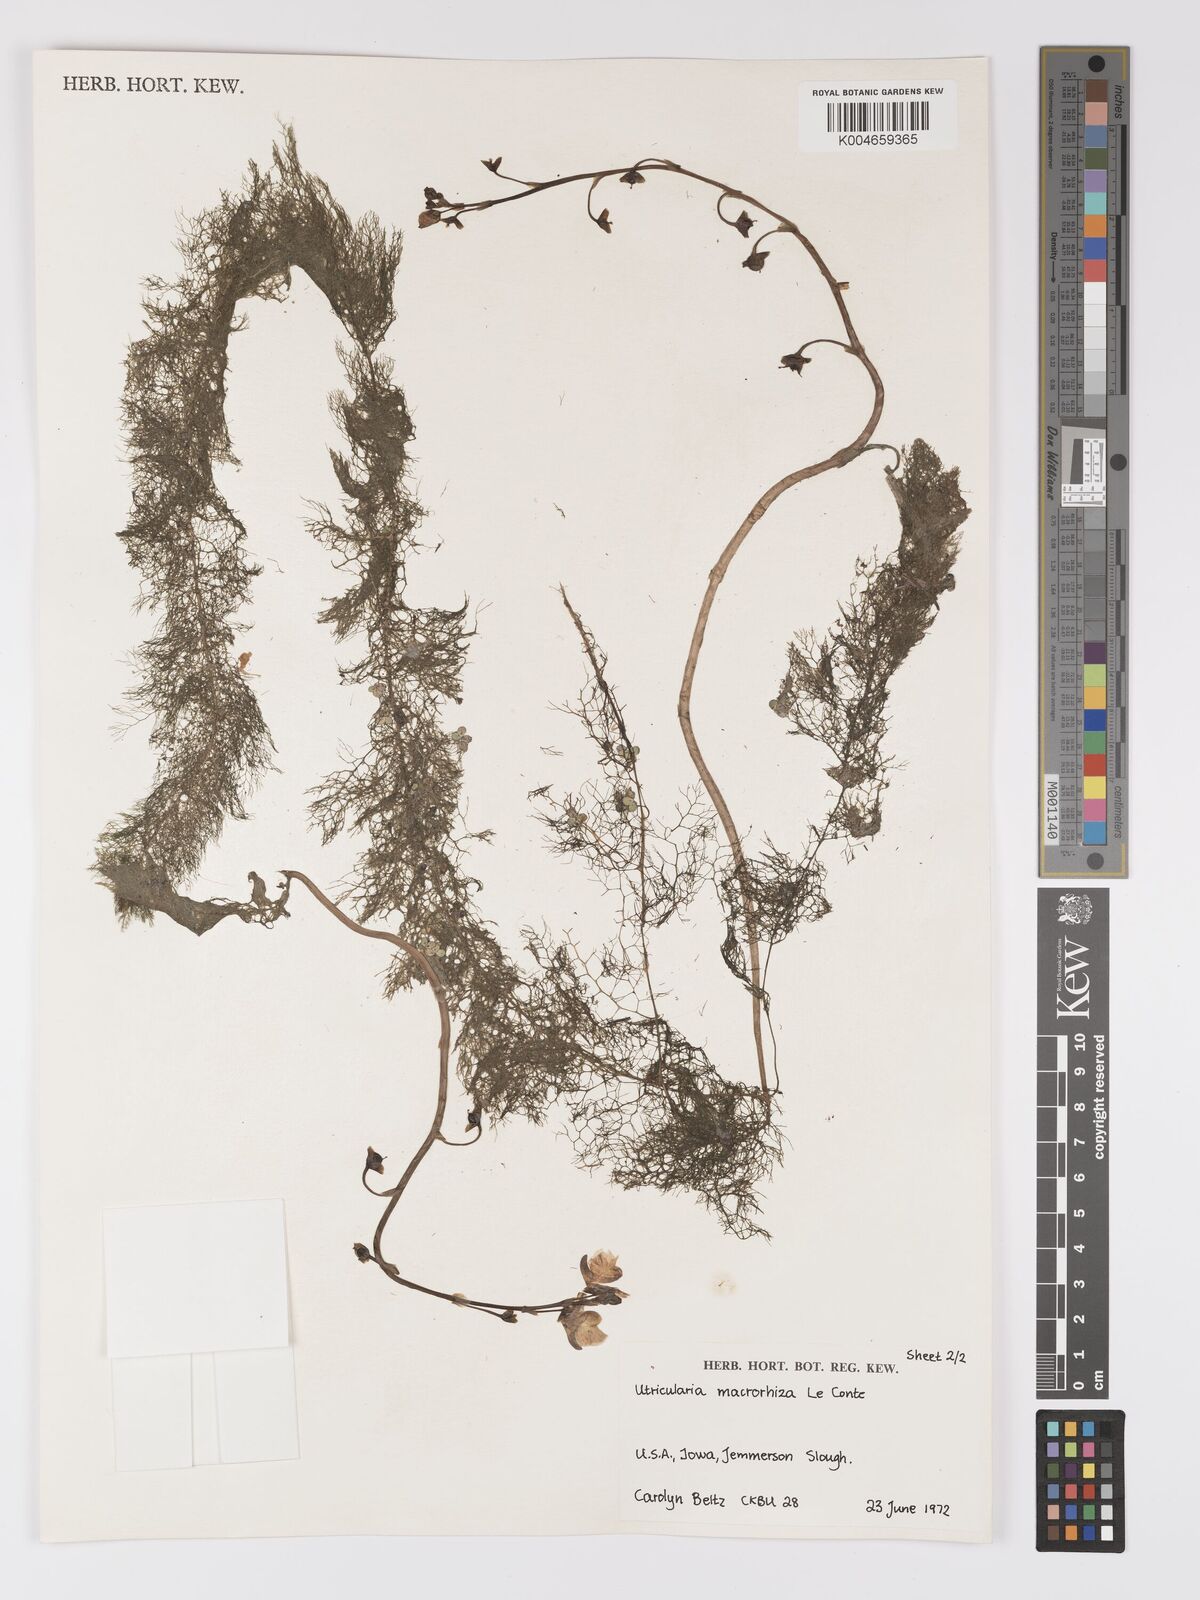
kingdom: Plantae
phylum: Tracheophyta
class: Magnoliopsida
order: Lamiales
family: Lentibulariaceae
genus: Utricularia
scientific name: Utricularia macrorhiza
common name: Common bladderwort
